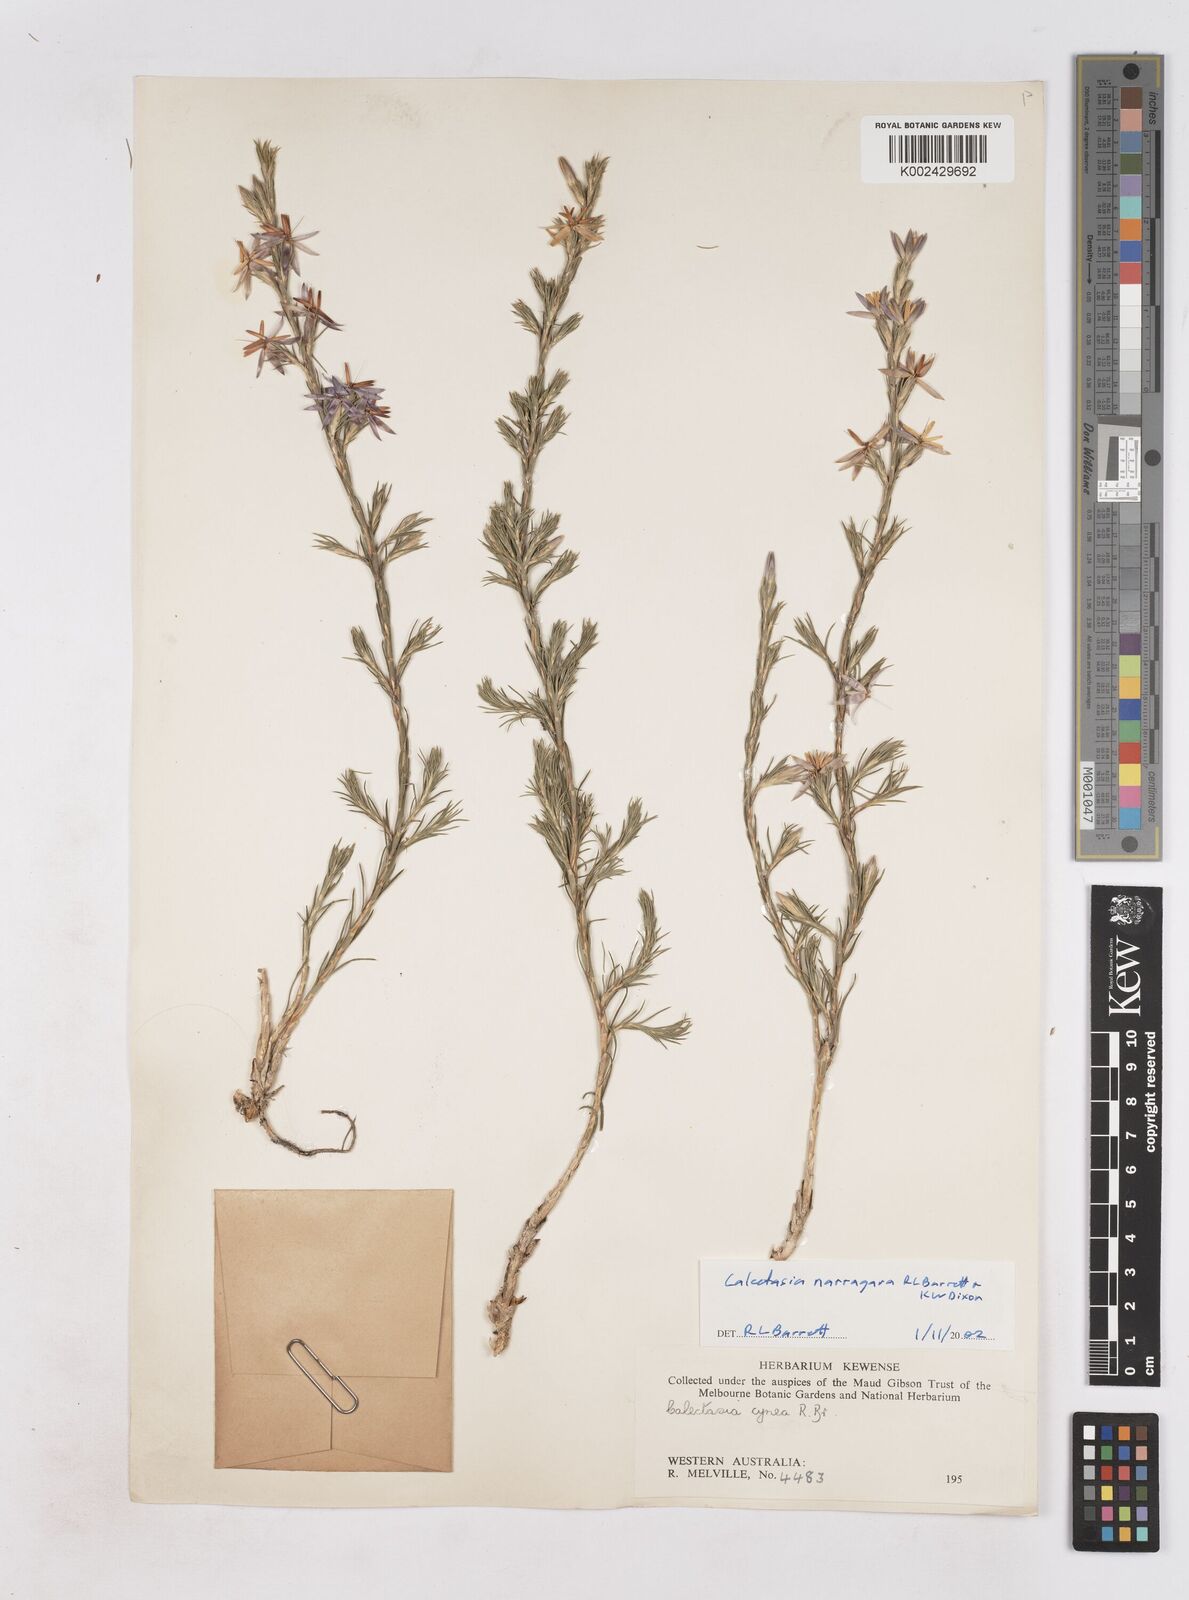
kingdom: Plantae
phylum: Tracheophyta
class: Liliopsida
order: Arecales
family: Dasypogonaceae
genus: Calectasia
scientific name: Calectasia narragara
